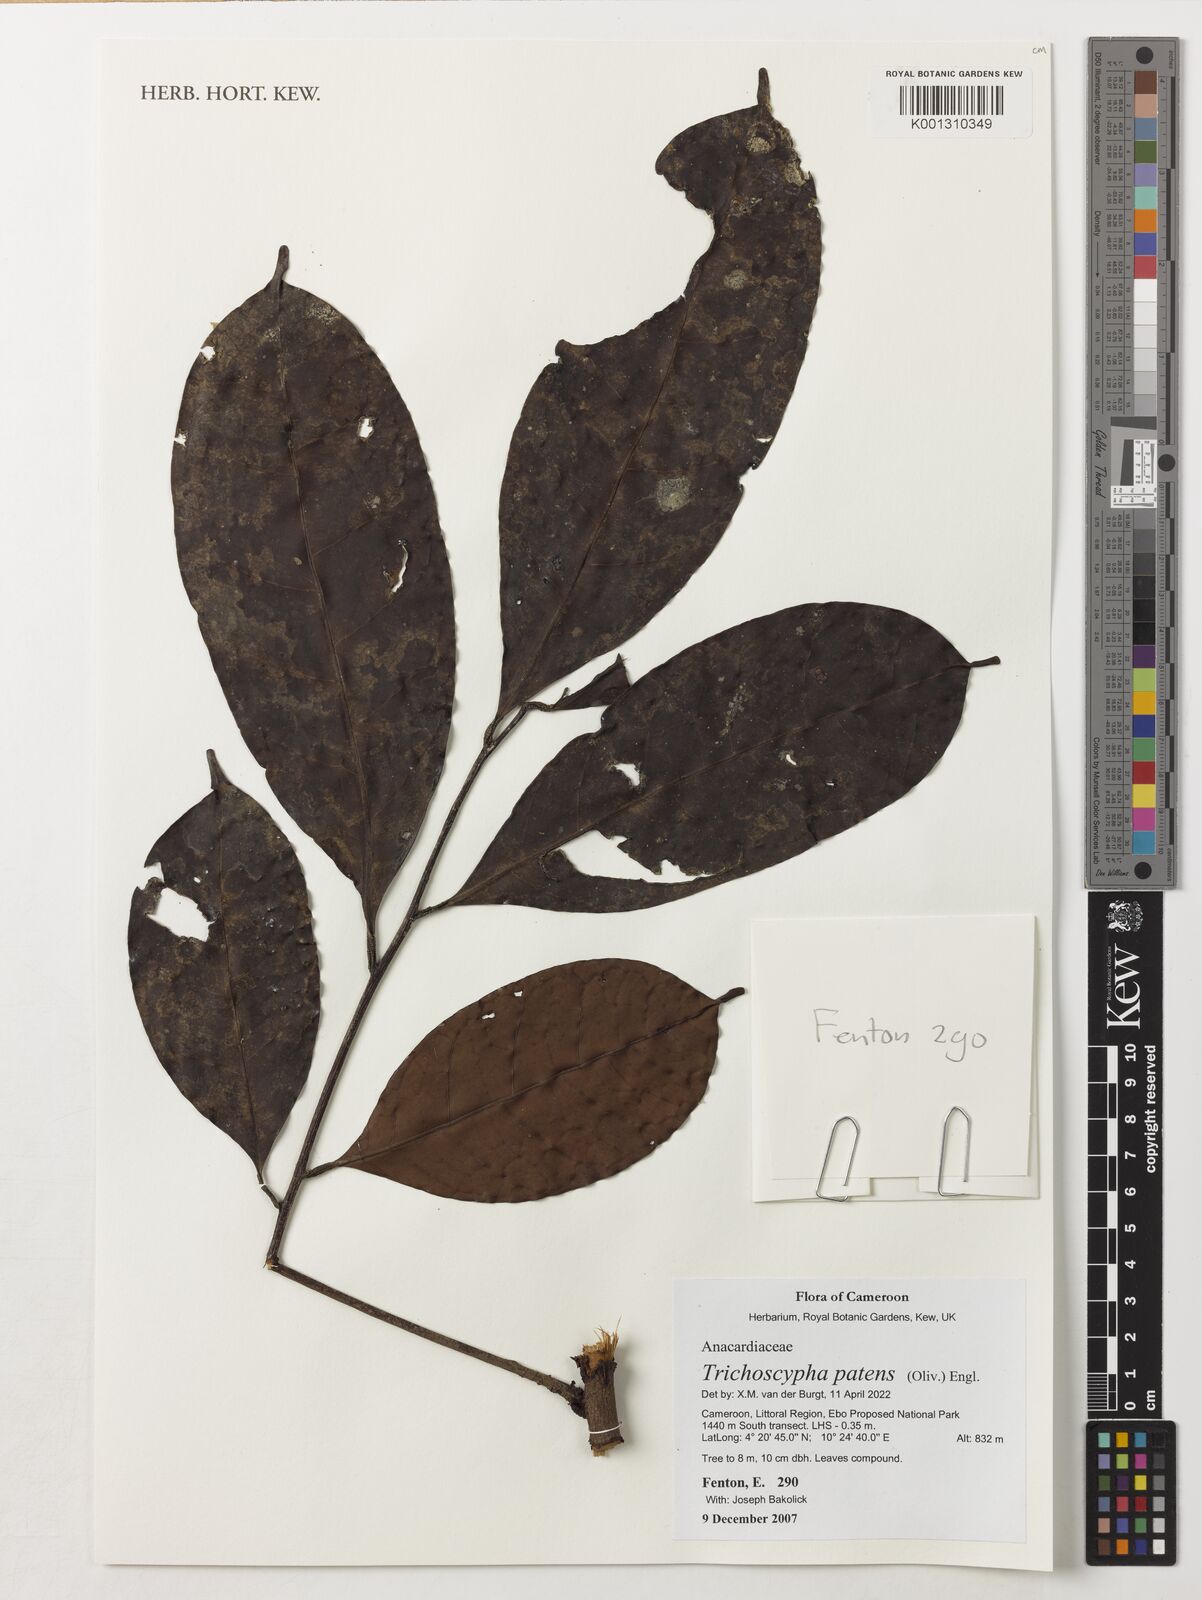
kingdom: Plantae
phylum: Tracheophyta
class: Magnoliopsida
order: Sapindales
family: Anacardiaceae
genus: Trichoscypha
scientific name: Trichoscypha patens
